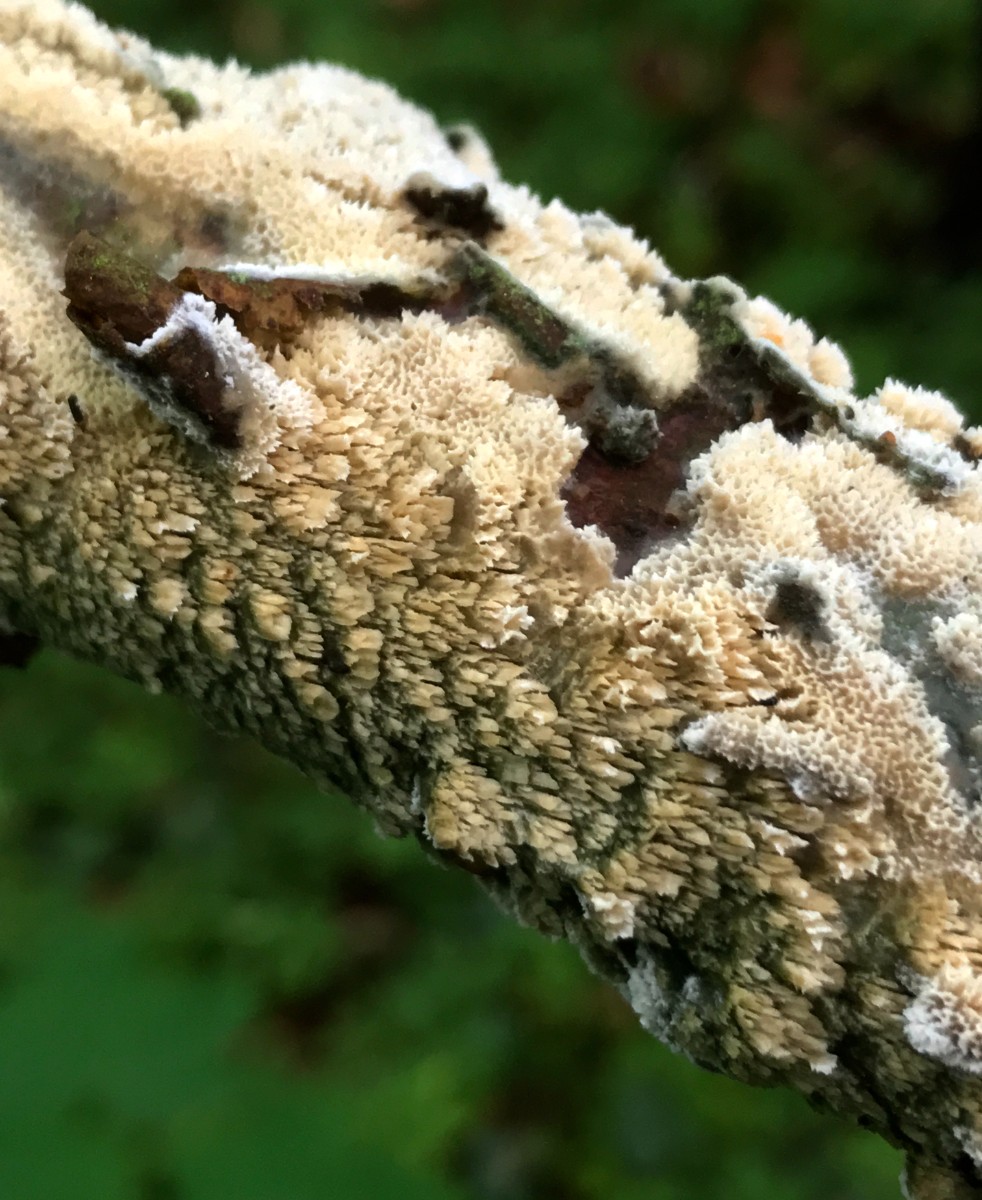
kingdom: Fungi
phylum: Basidiomycota
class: Agaricomycetes
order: Hymenochaetales
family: Schizoporaceae
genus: Schizopora
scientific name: Schizopora paradoxa
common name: hvid tandsvamp
